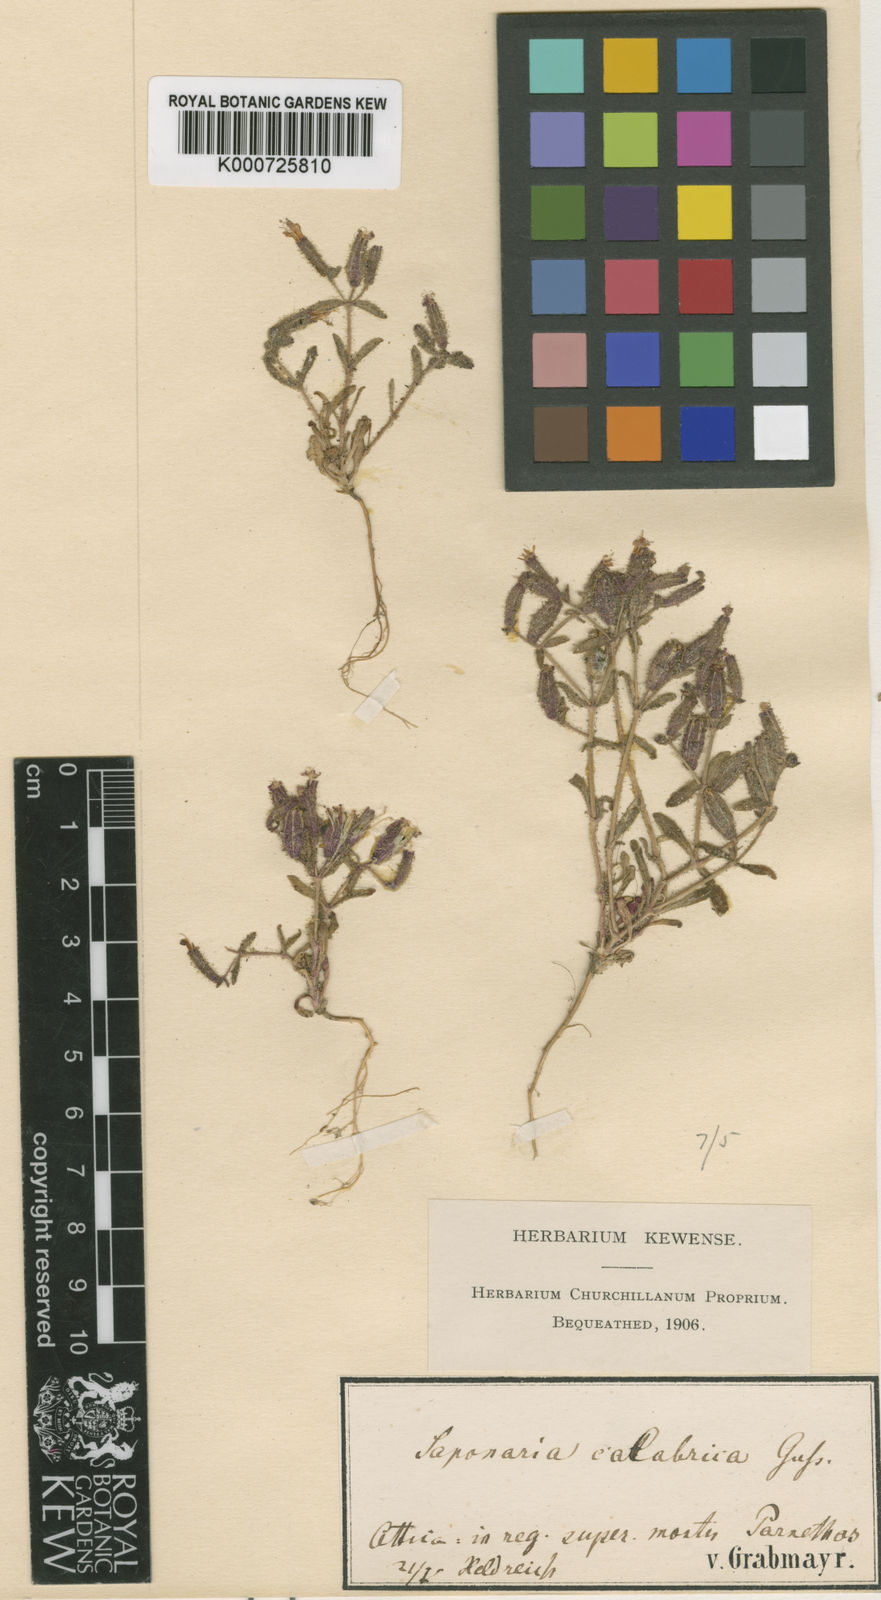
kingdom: Plantae
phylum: Tracheophyta
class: Magnoliopsida
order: Caryophyllales
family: Caryophyllaceae
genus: Saponaria
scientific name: Saponaria calabrica
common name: Adriatic soapwort
